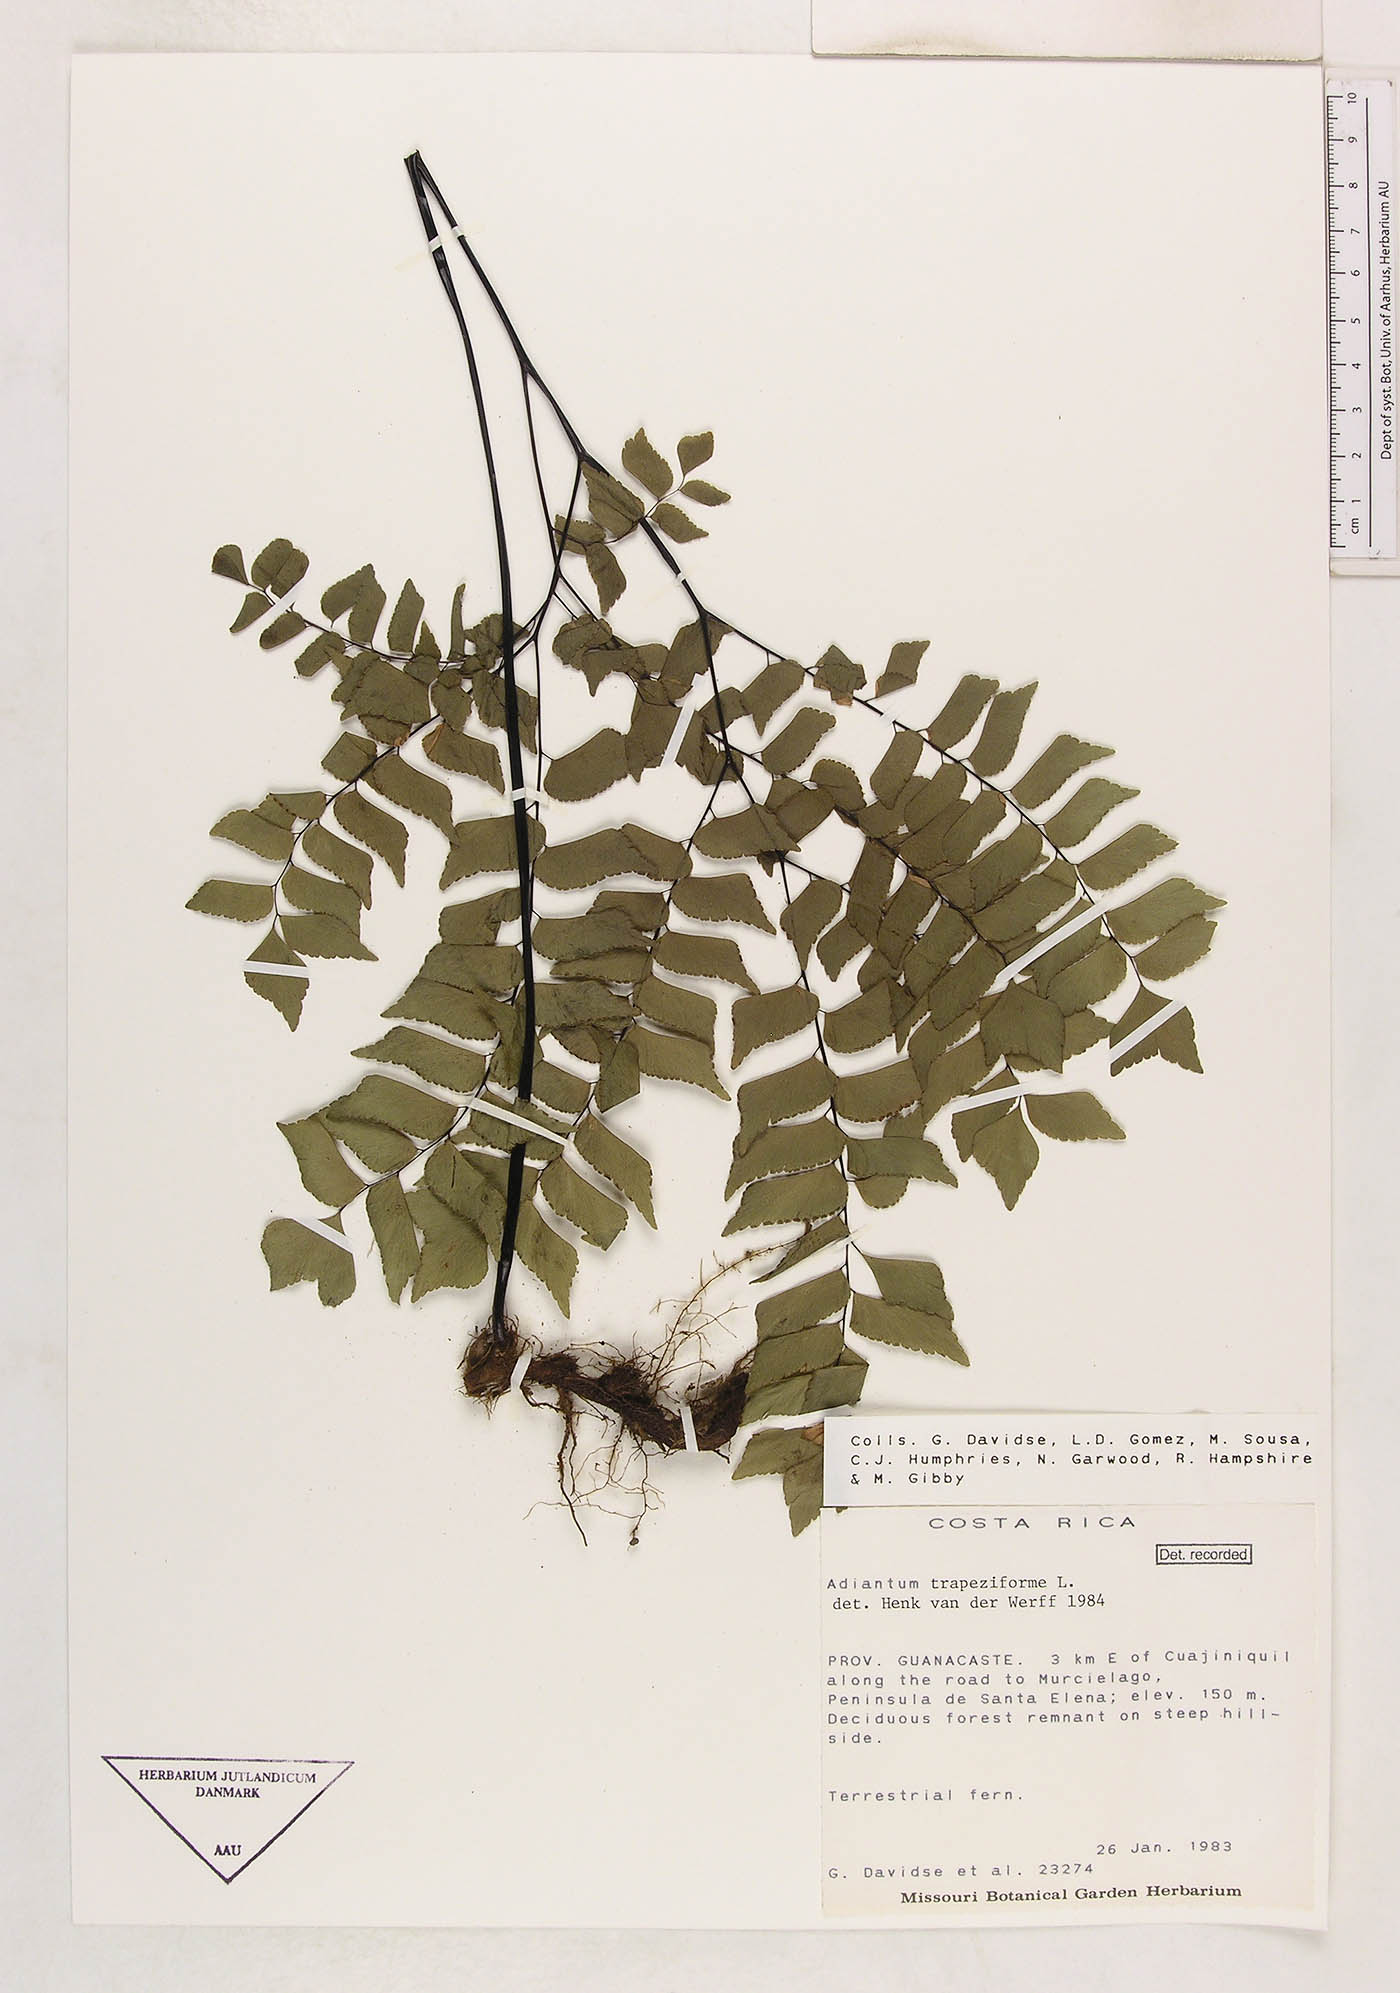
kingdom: Plantae
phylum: Tracheophyta
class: Polypodiopsida
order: Polypodiales
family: Pteridaceae
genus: Adiantum
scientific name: Adiantum
